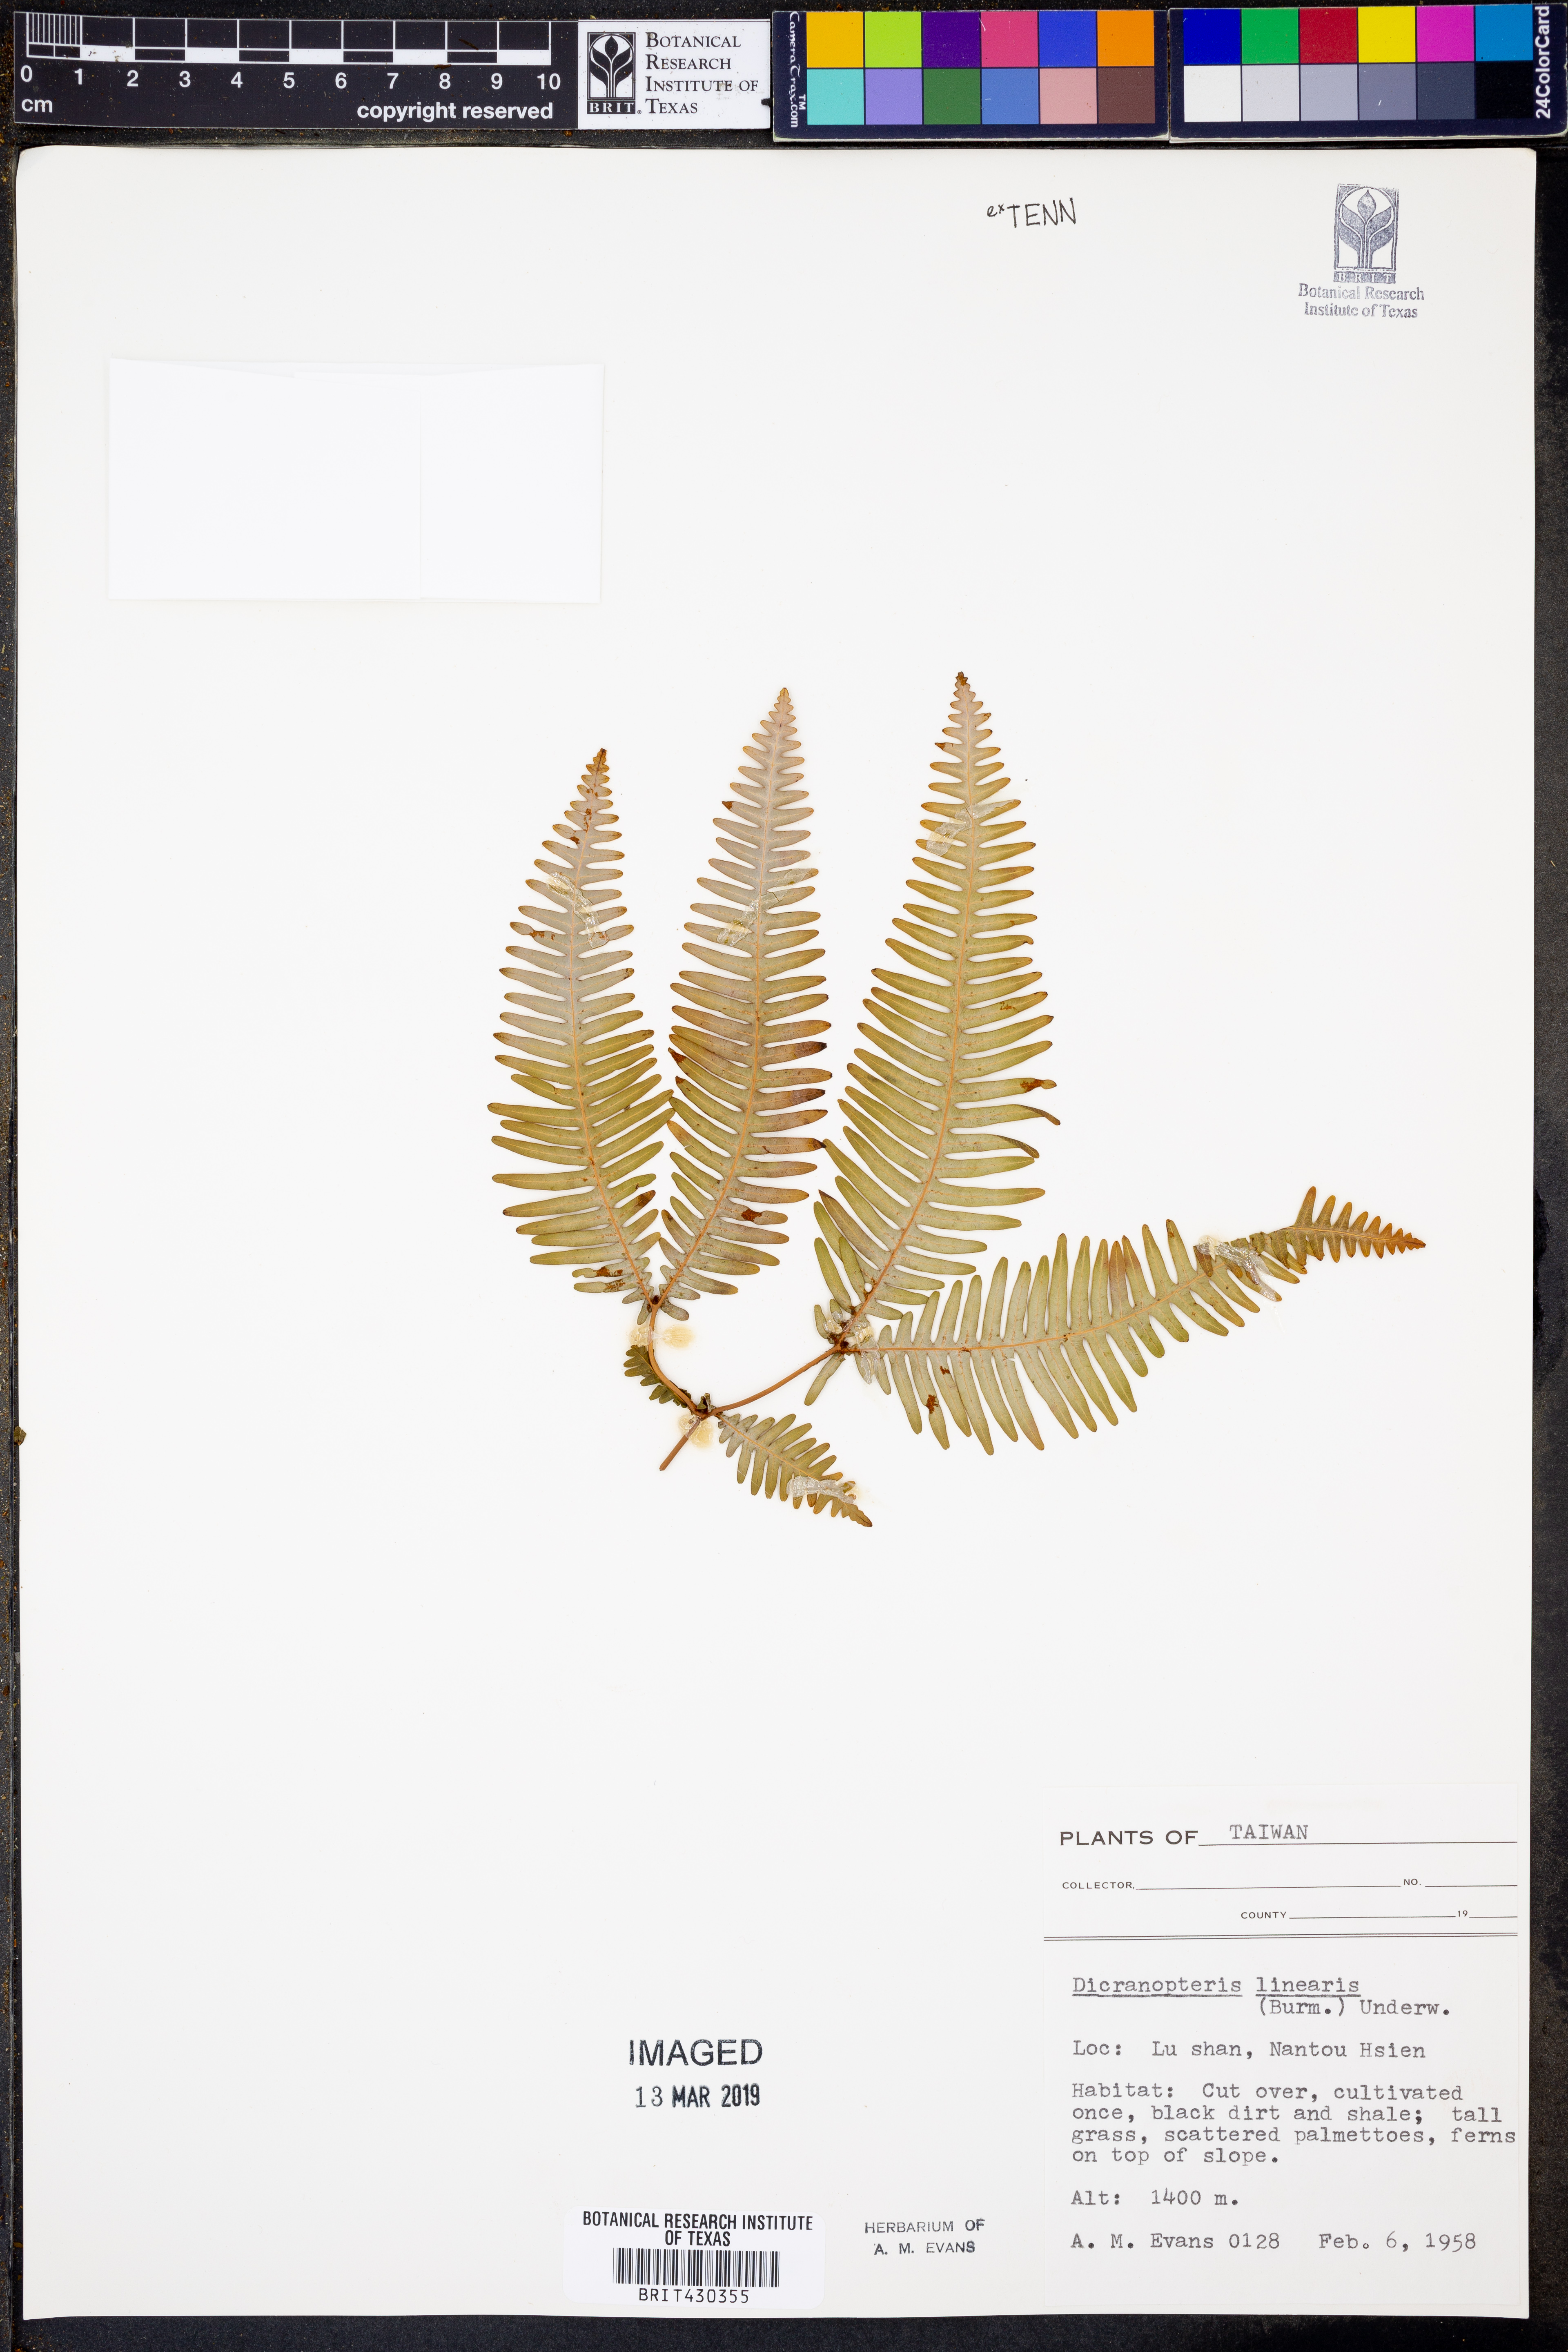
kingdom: Plantae
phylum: Tracheophyta
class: Polypodiopsida
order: Gleicheniales
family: Gleicheniaceae
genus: Dicranopteris
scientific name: Dicranopteris linearis
